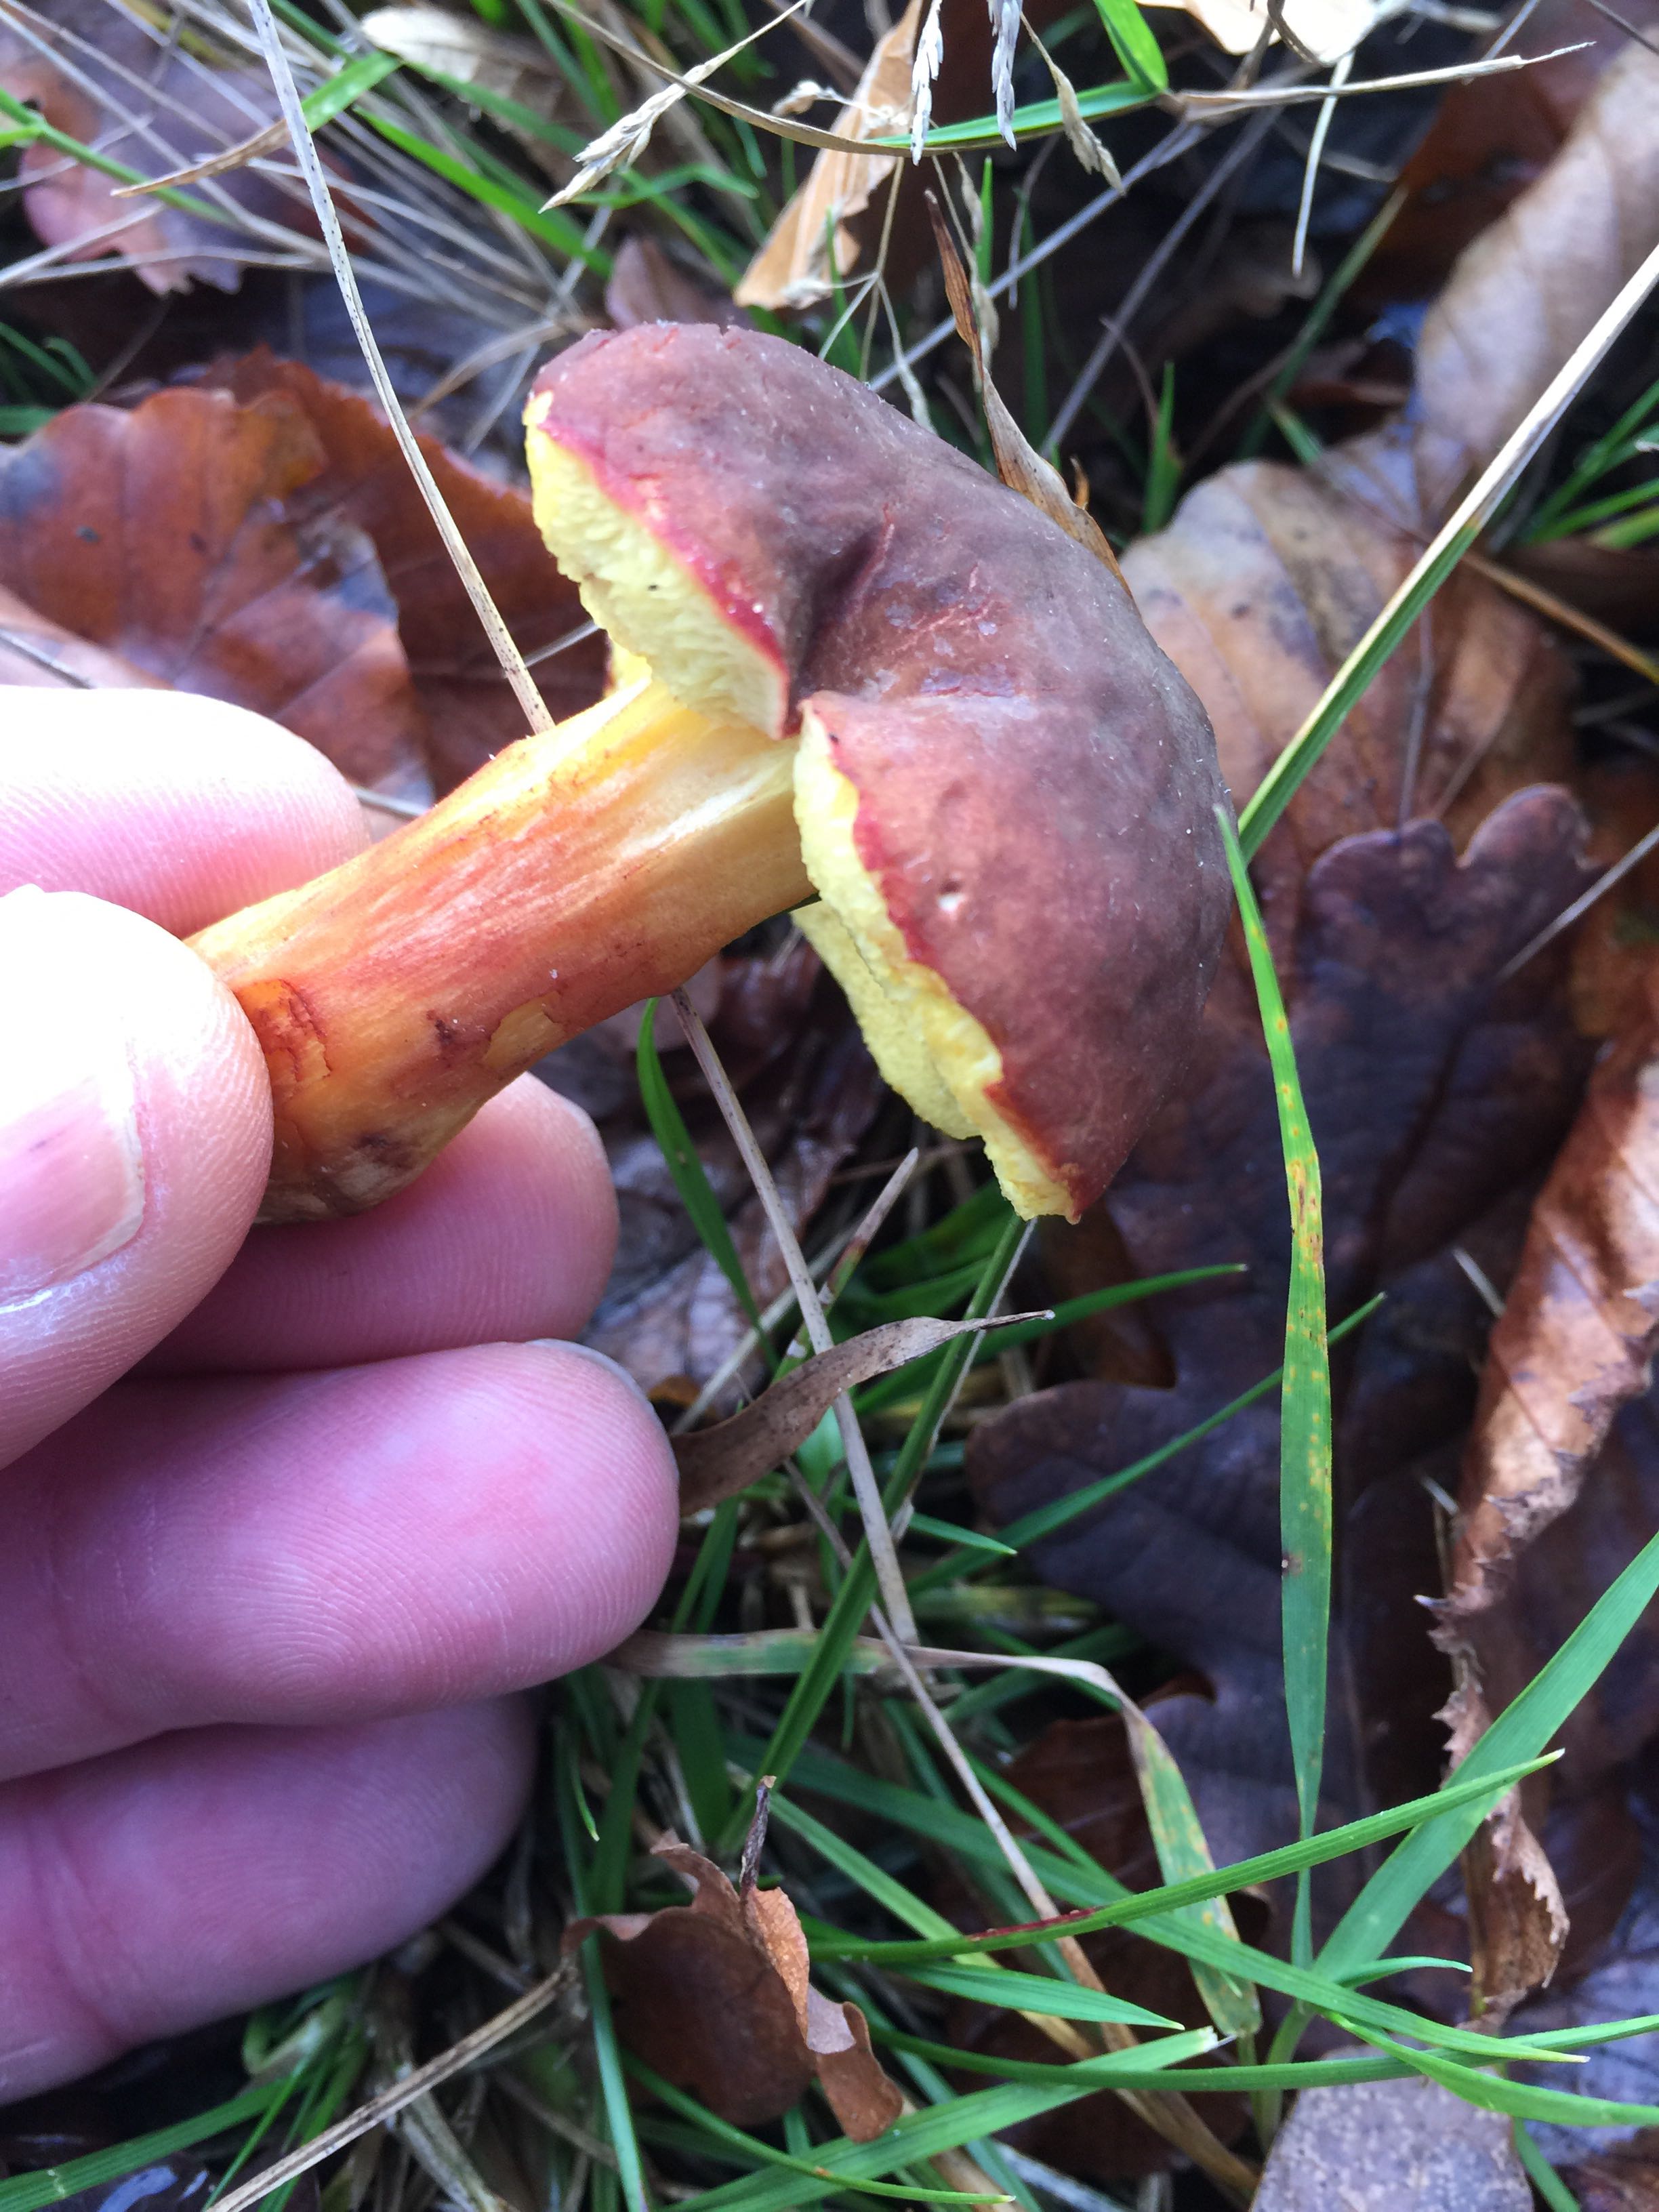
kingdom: Fungi
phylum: Basidiomycota
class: Agaricomycetes
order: Boletales
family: Boletaceae
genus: Xerocomellus
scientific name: Xerocomellus pruinatus
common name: dugget rørhat
